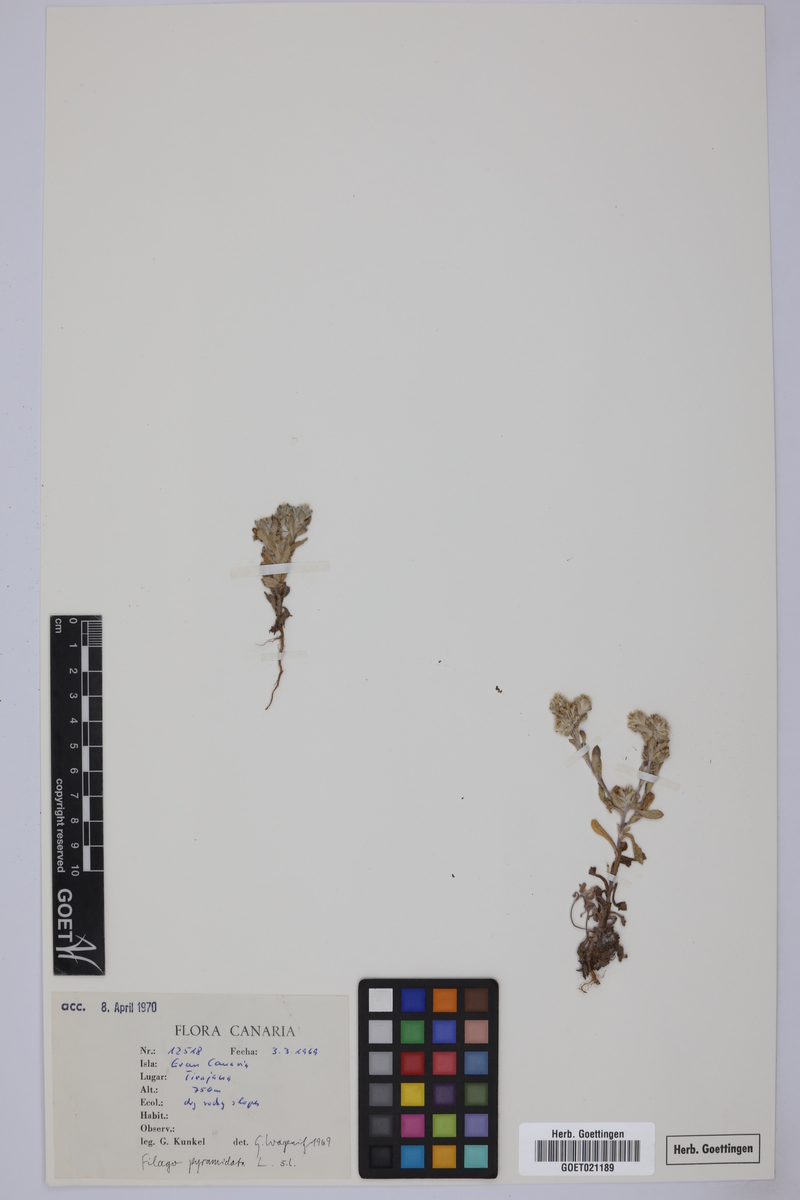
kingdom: Plantae
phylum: Tracheophyta
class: Magnoliopsida
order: Asterales
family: Asteraceae
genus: Filago
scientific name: Filago pyramidata
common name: Broad-leaved cudweed
